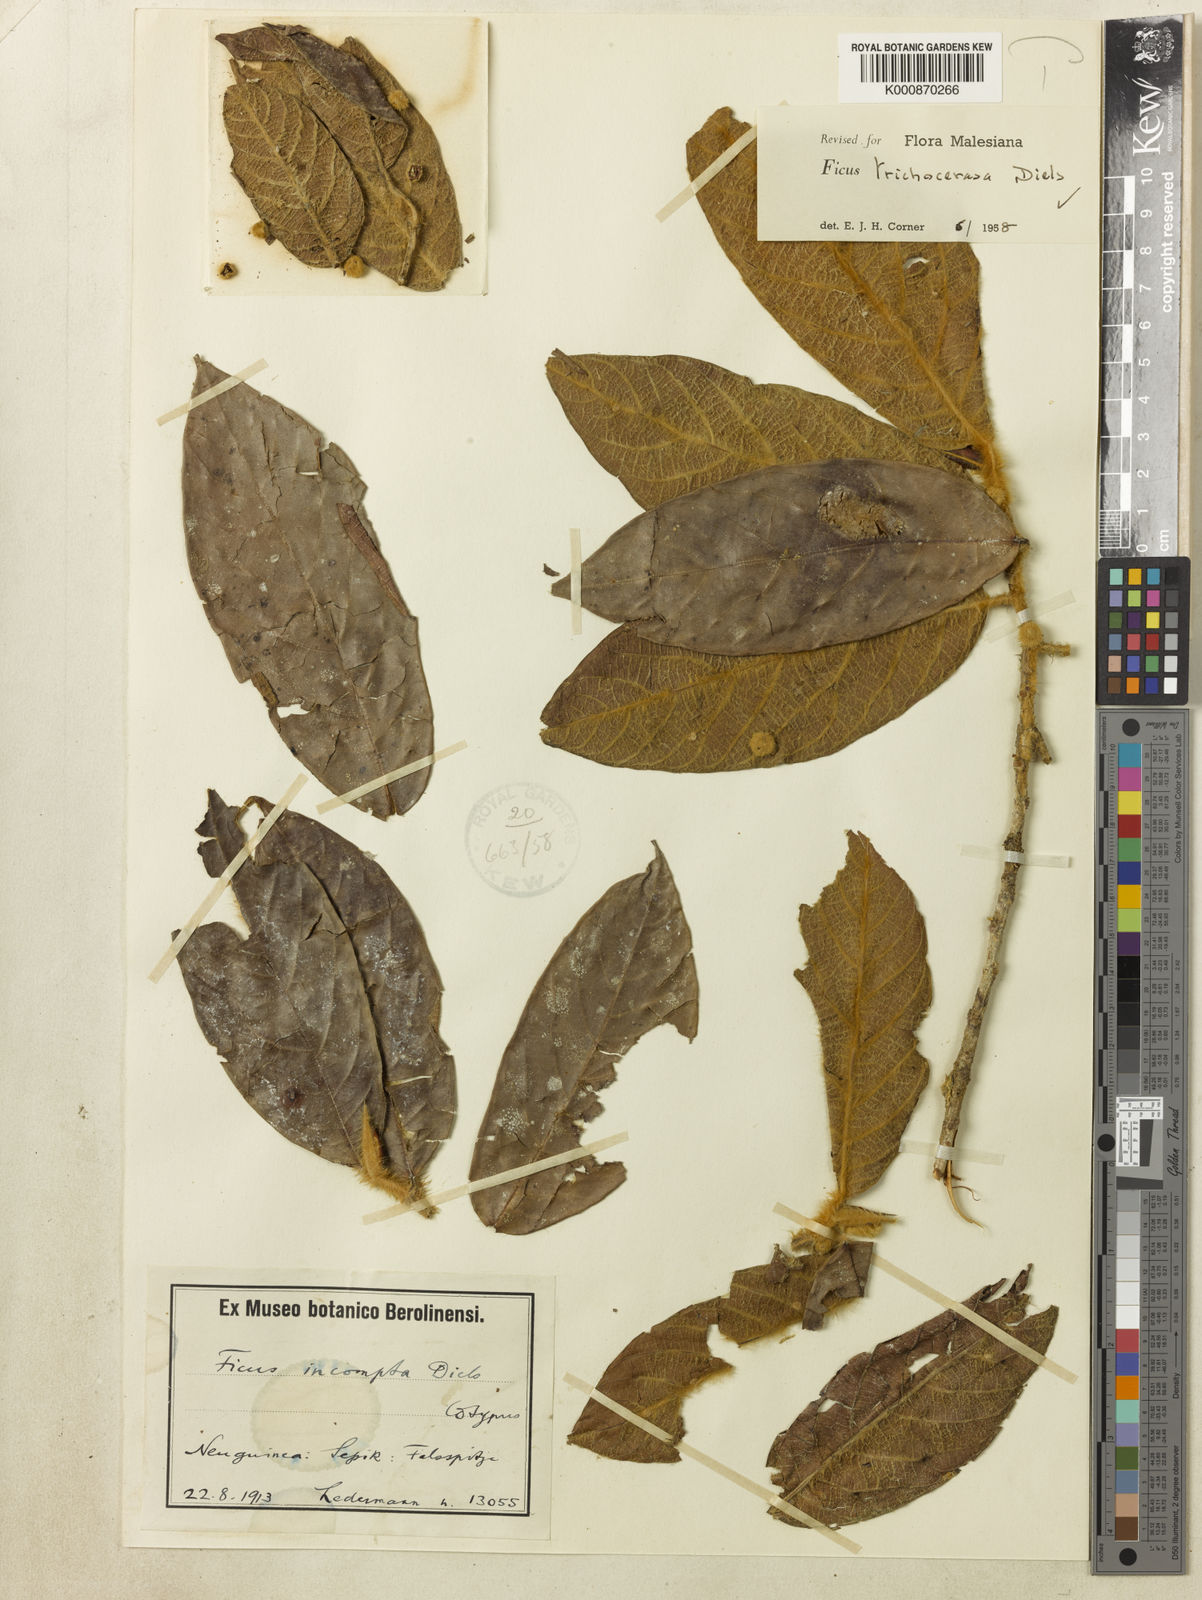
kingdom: Plantae
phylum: Tracheophyta
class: Magnoliopsida
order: Rosales
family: Moraceae
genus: Ficus
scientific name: Ficus trichocerasa
